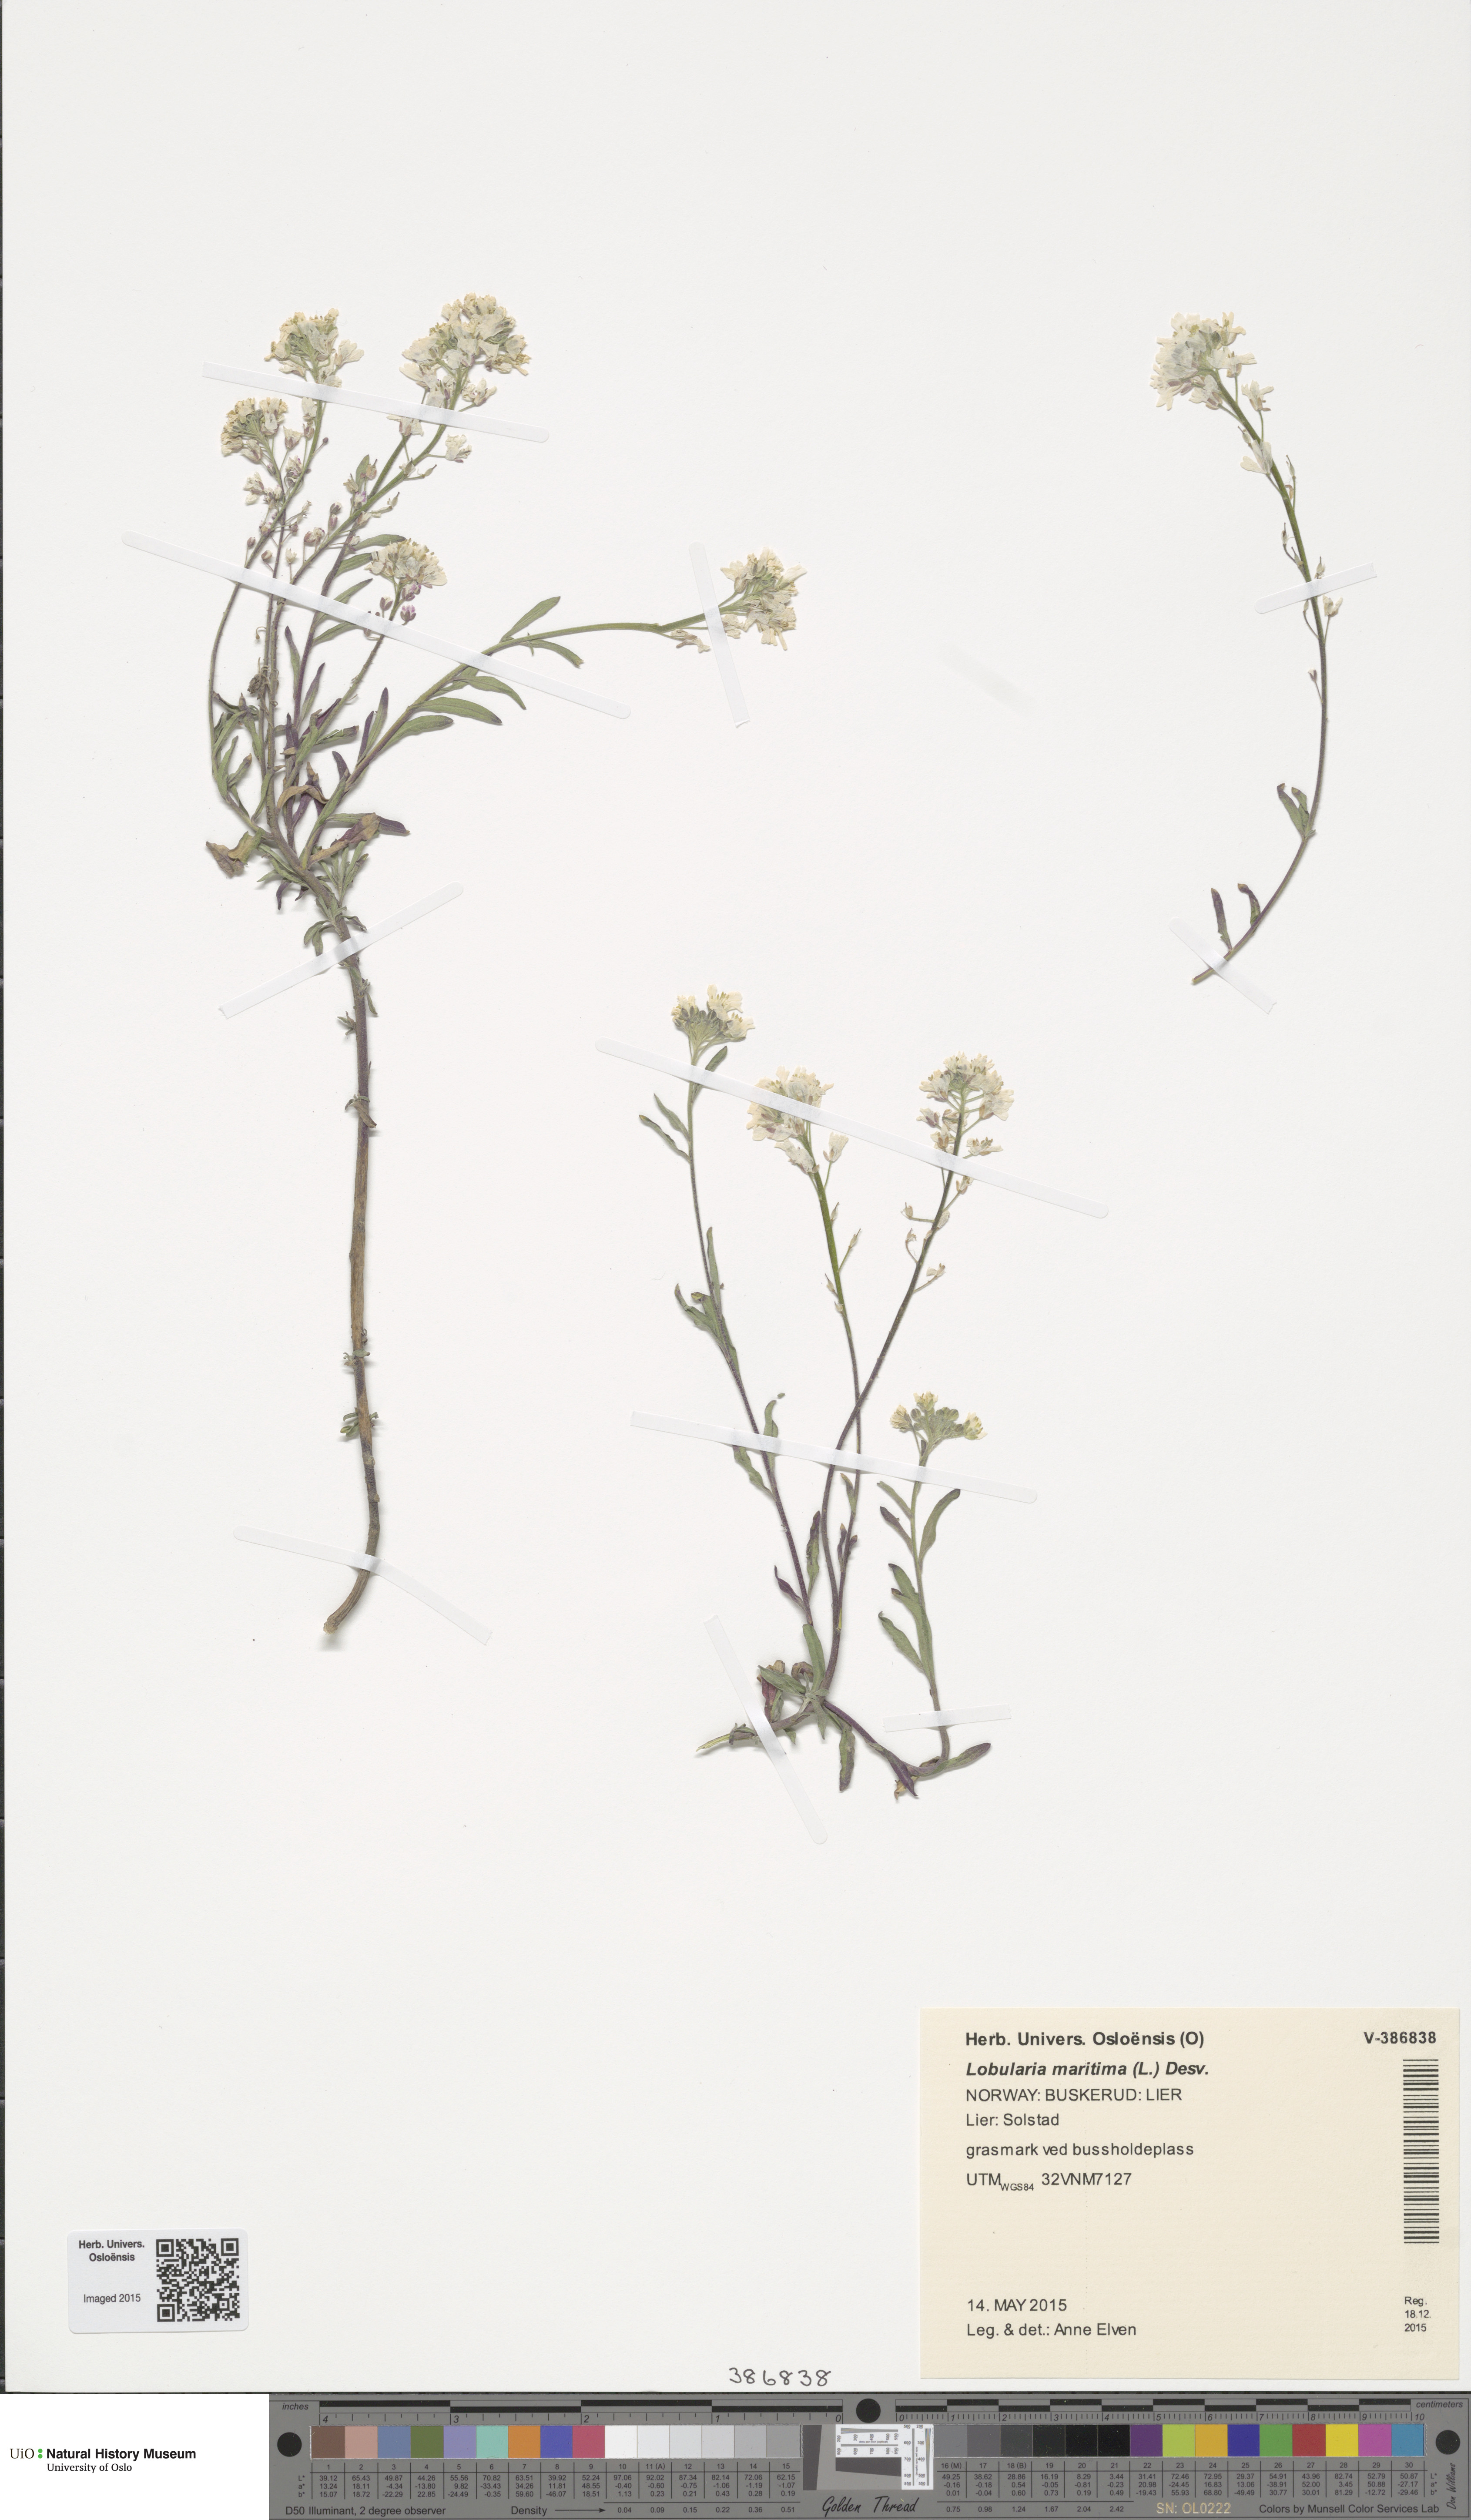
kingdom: Plantae
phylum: Tracheophyta
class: Magnoliopsida
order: Brassicales
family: Brassicaceae
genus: Lobularia
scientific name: Lobularia maritima
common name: Sweet alison
